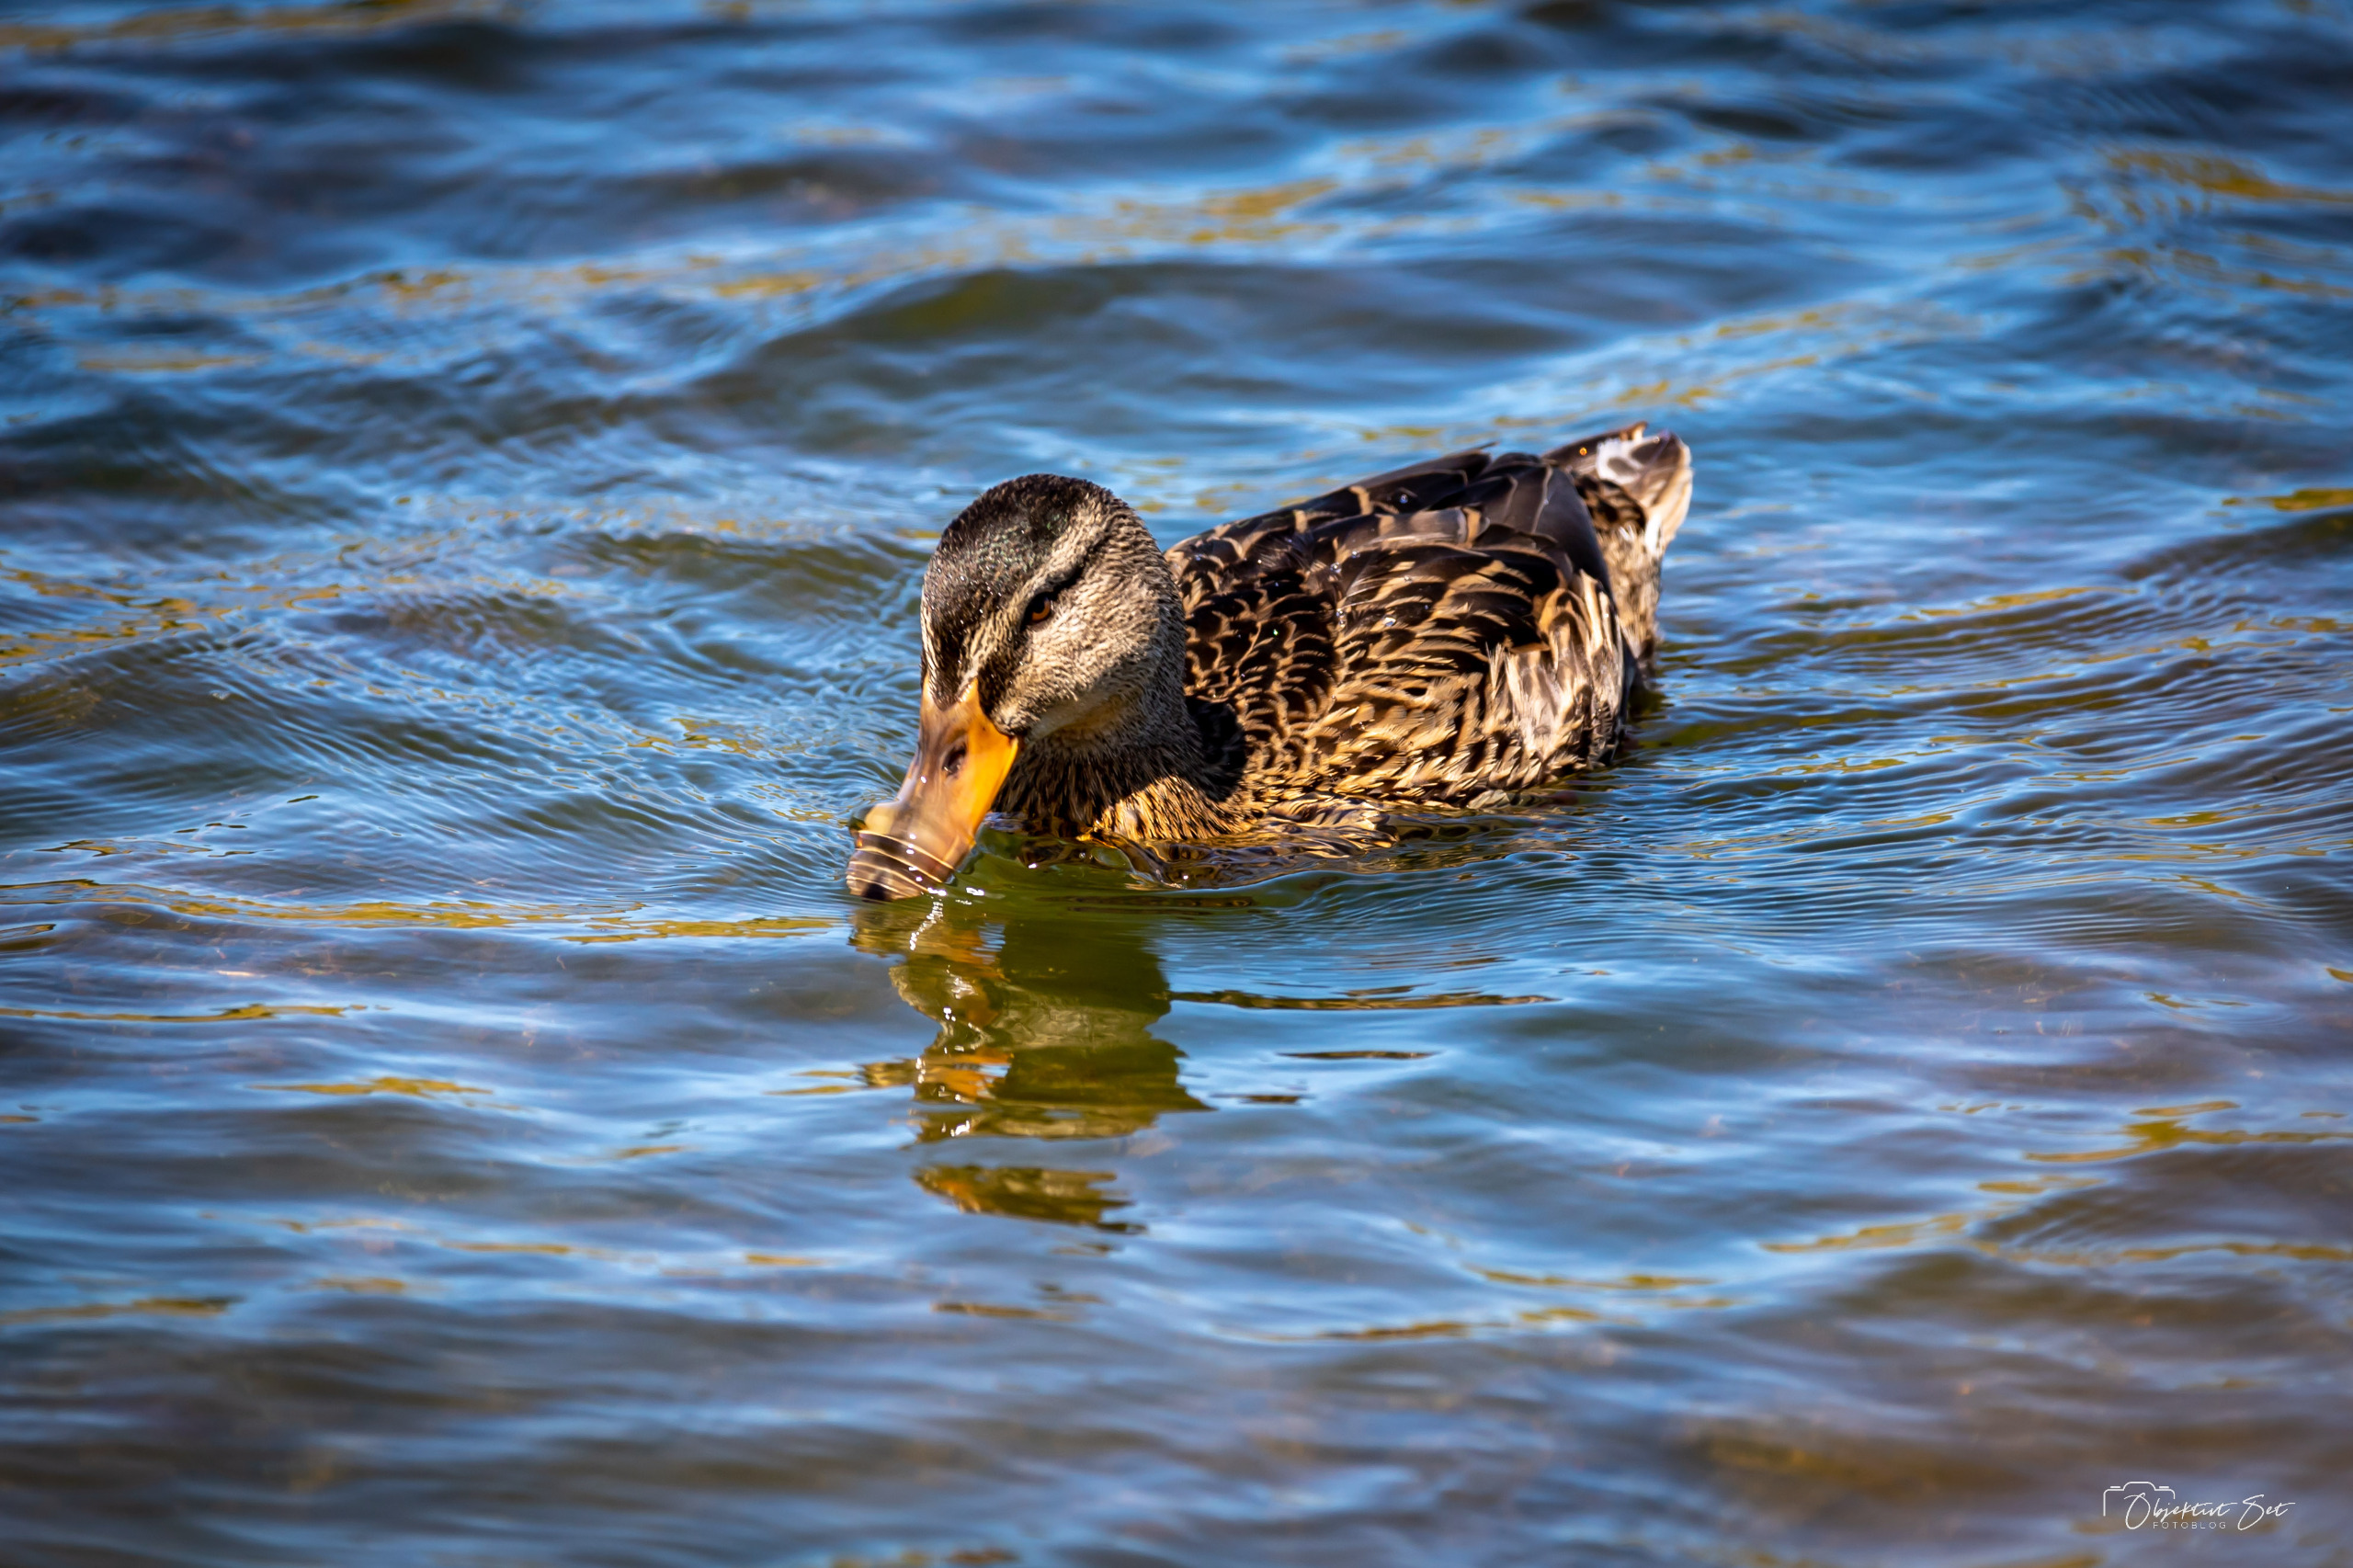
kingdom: Animalia
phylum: Chordata
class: Aves
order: Anseriformes
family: Anatidae
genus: Anas
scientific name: Anas platyrhynchos
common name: Gråand
